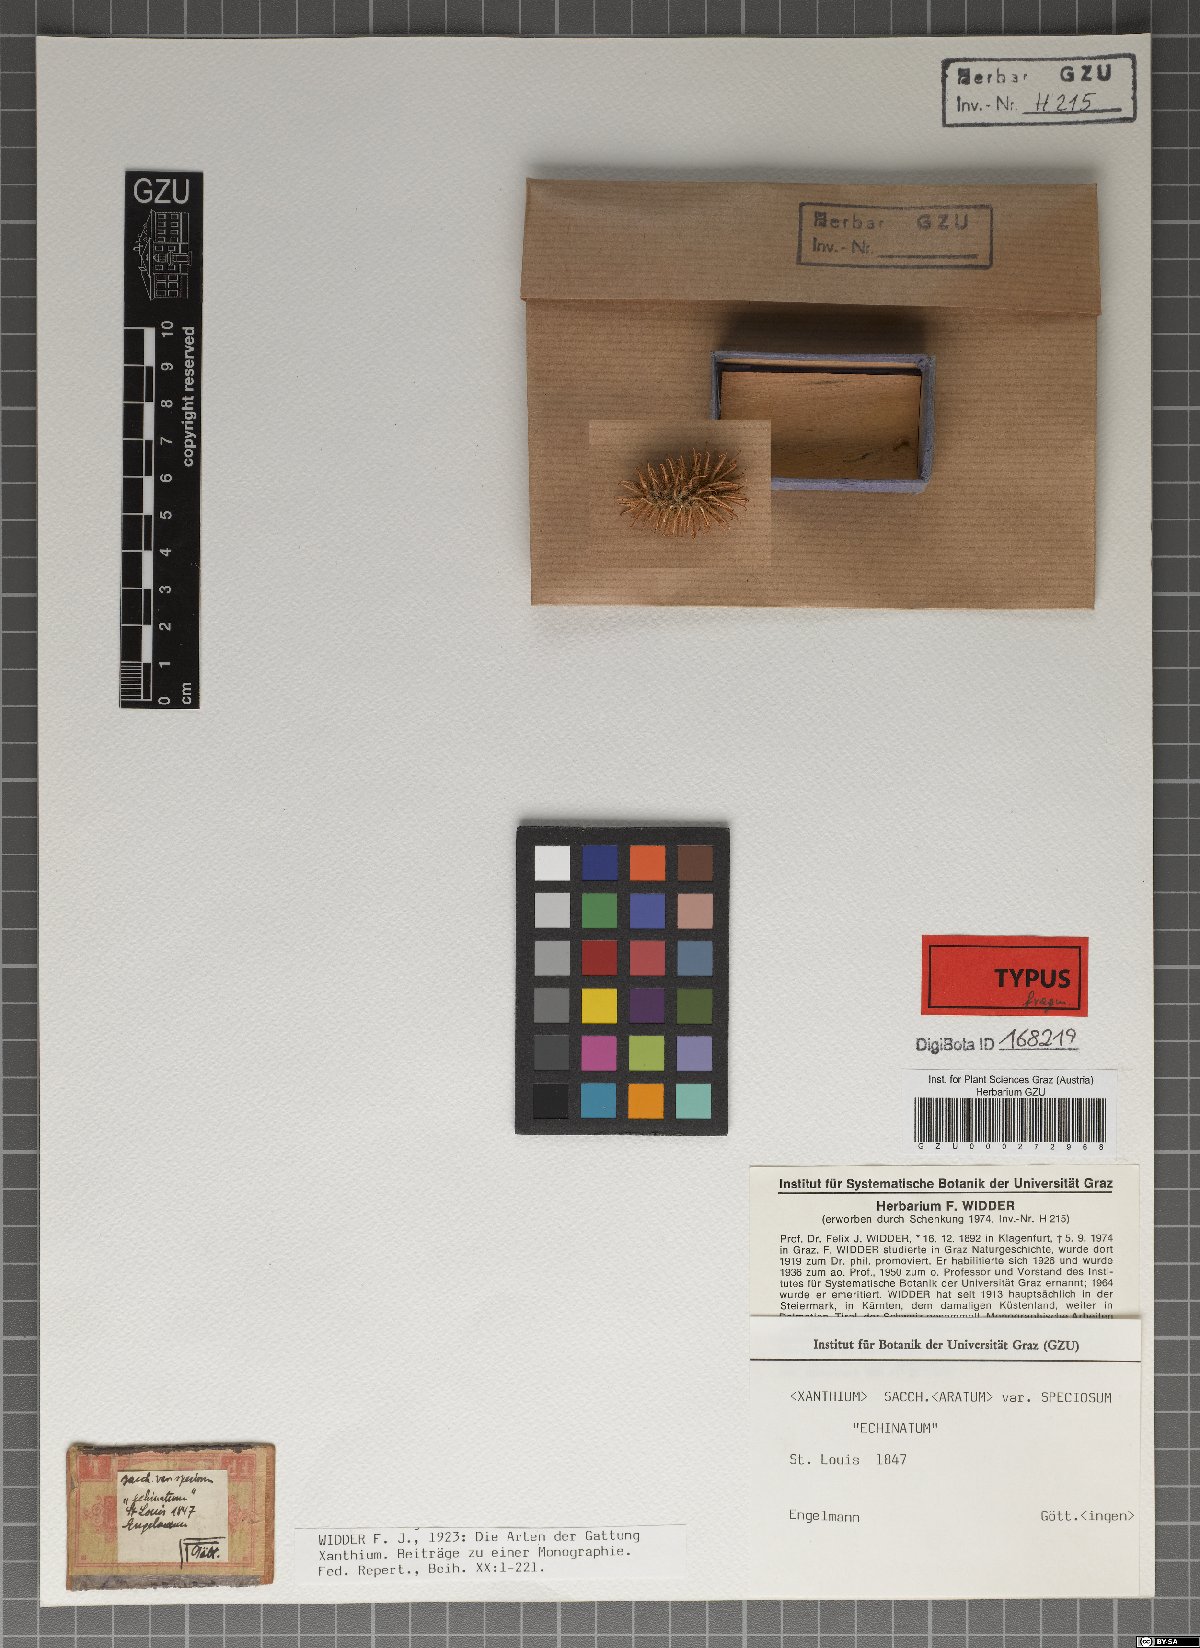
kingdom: Plantae
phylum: Tracheophyta
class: Magnoliopsida
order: Asterales
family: Asteraceae
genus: Xanthium
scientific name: Xanthium orientale
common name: Californian burr
